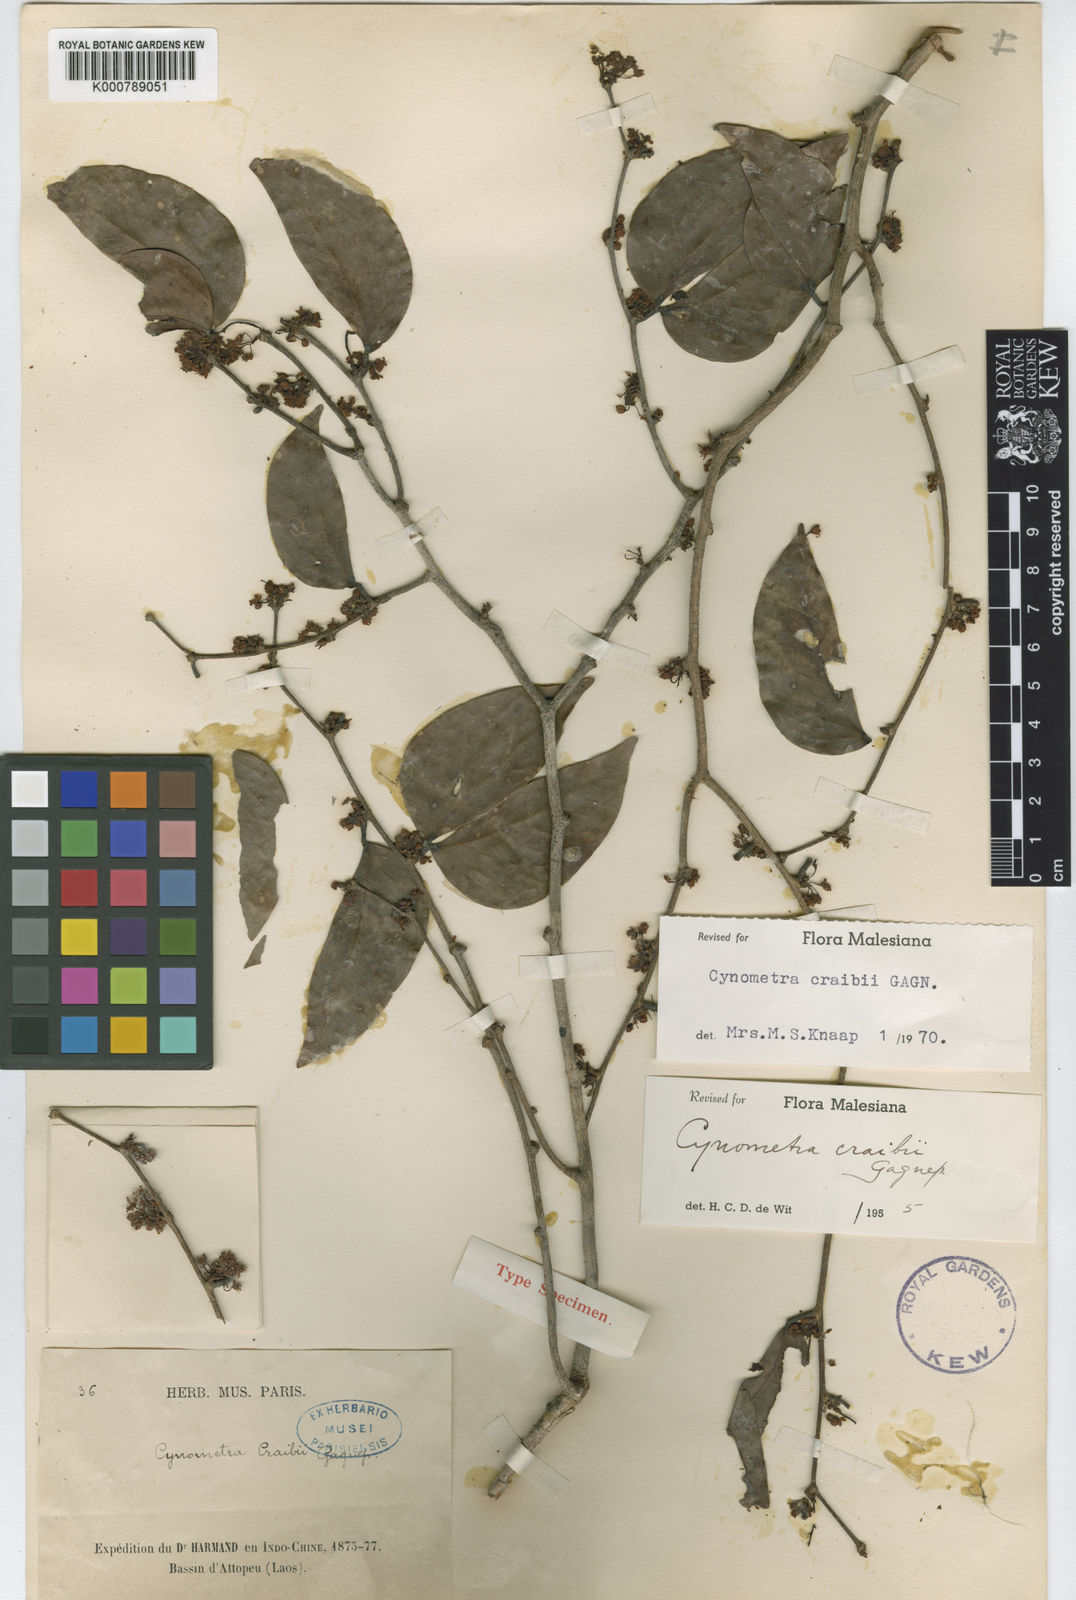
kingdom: Plantae
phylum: Tracheophyta
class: Magnoliopsida
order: Fabales
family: Fabaceae
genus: Cynometra
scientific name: Cynometra craibii
